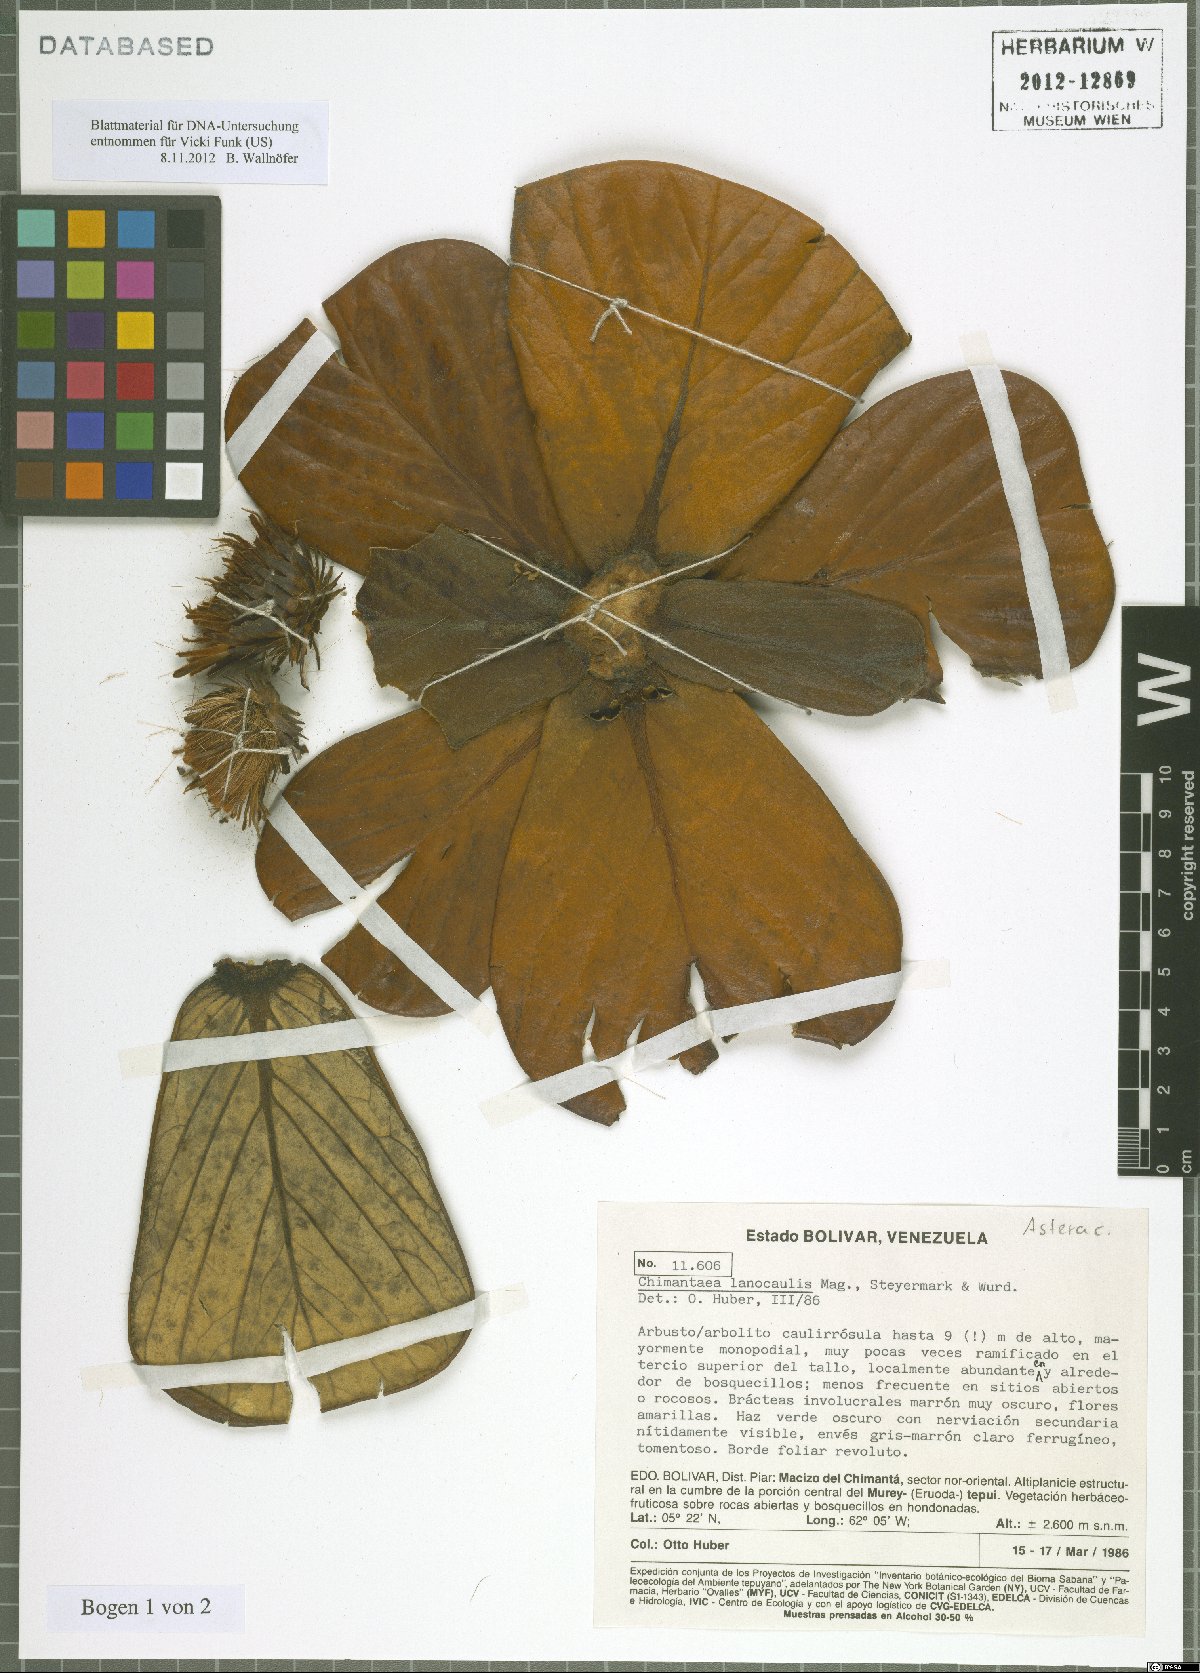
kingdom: Plantae
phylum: Tracheophyta
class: Magnoliopsida
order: Asterales
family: Asteraceae
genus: Chimantaea
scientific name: Chimantaea lanocaulis
